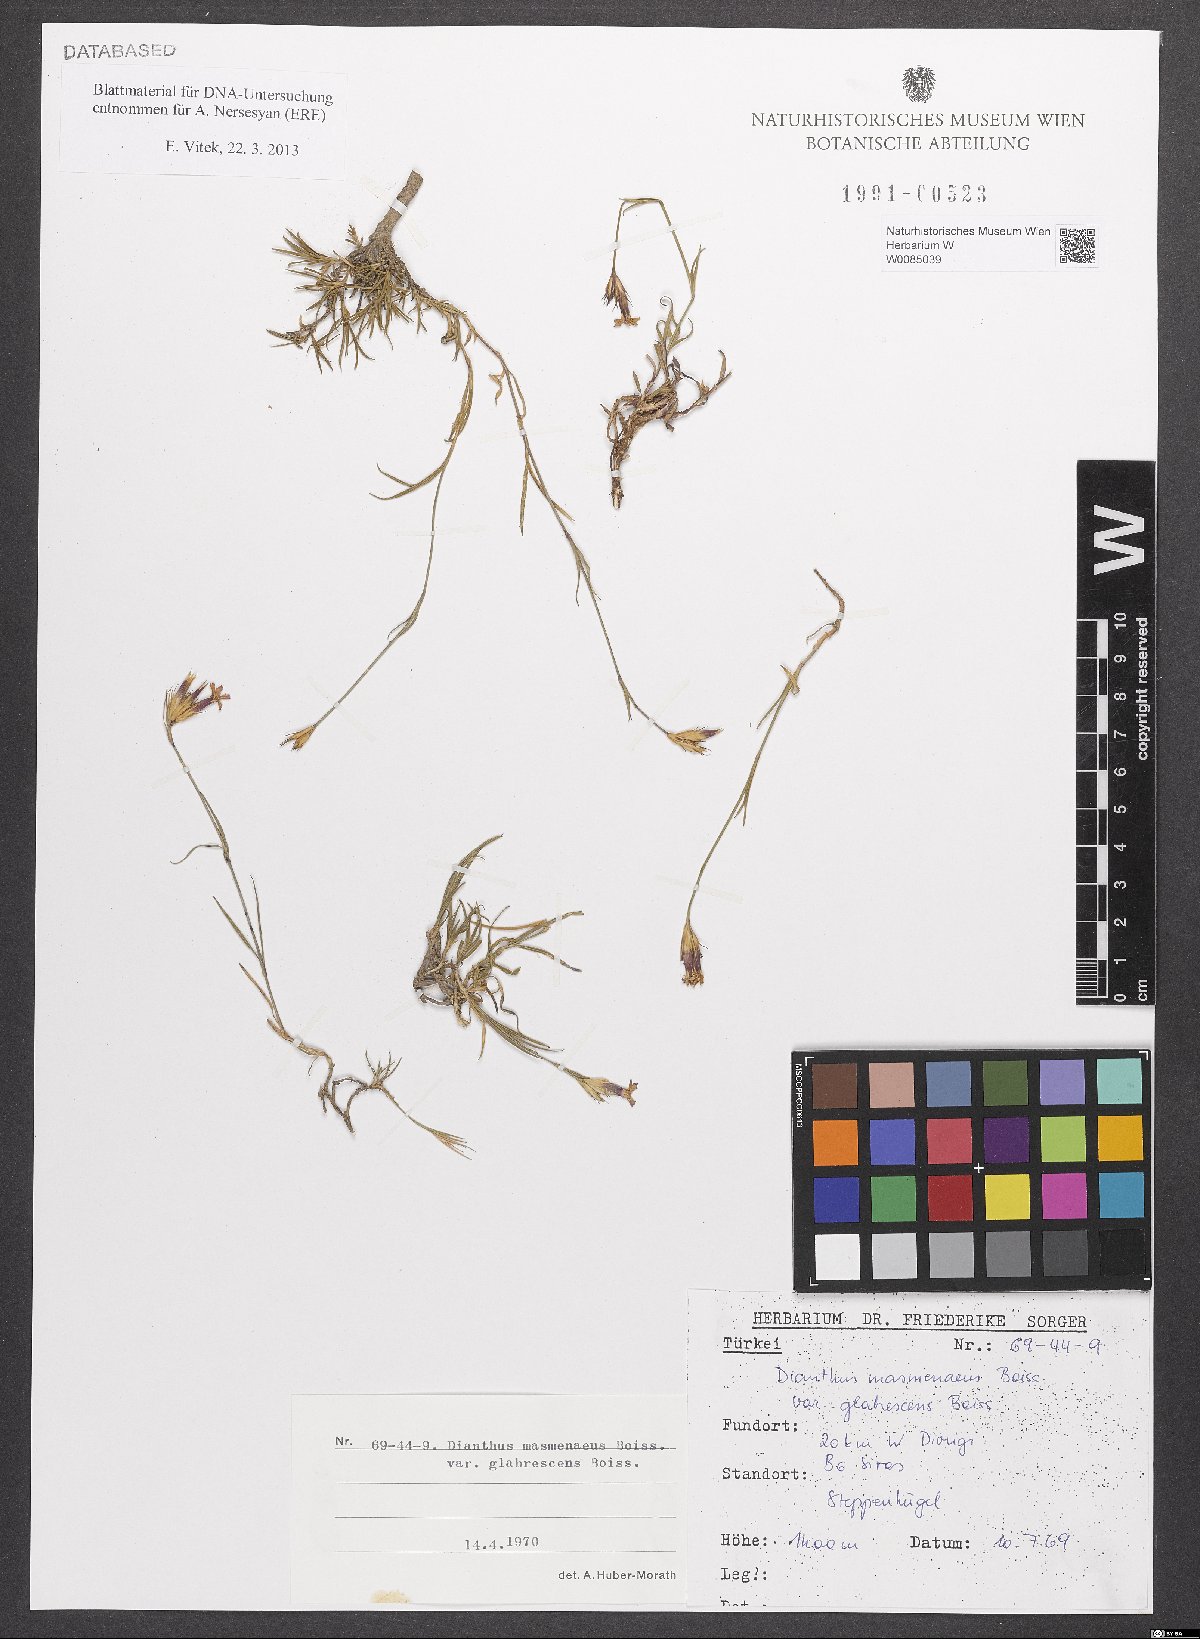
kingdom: Plantae
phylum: Tracheophyta
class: Magnoliopsida
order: Caryophyllales
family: Caryophyllaceae
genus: Dianthus
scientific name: Dianthus masmenaeus
